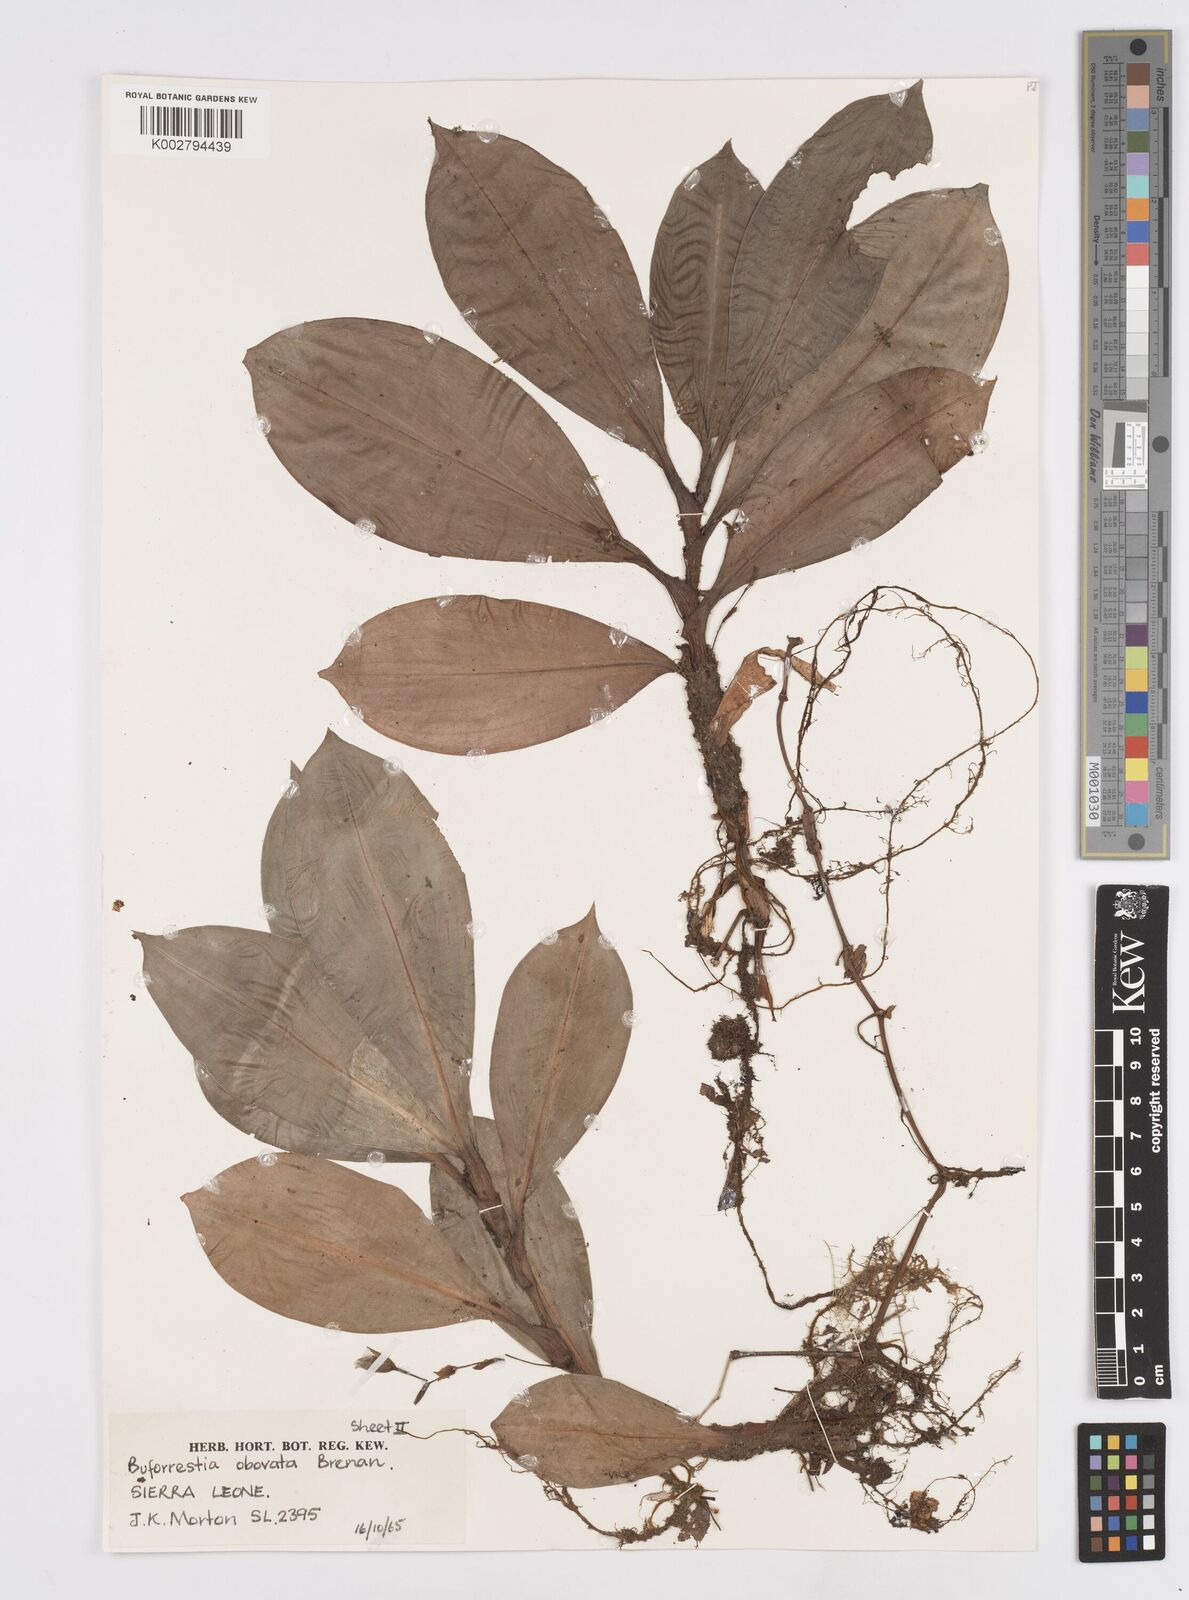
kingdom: Plantae
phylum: Tracheophyta
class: Liliopsida
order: Commelinales
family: Commelinaceae
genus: Buforrestia
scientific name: Buforrestia obovata
